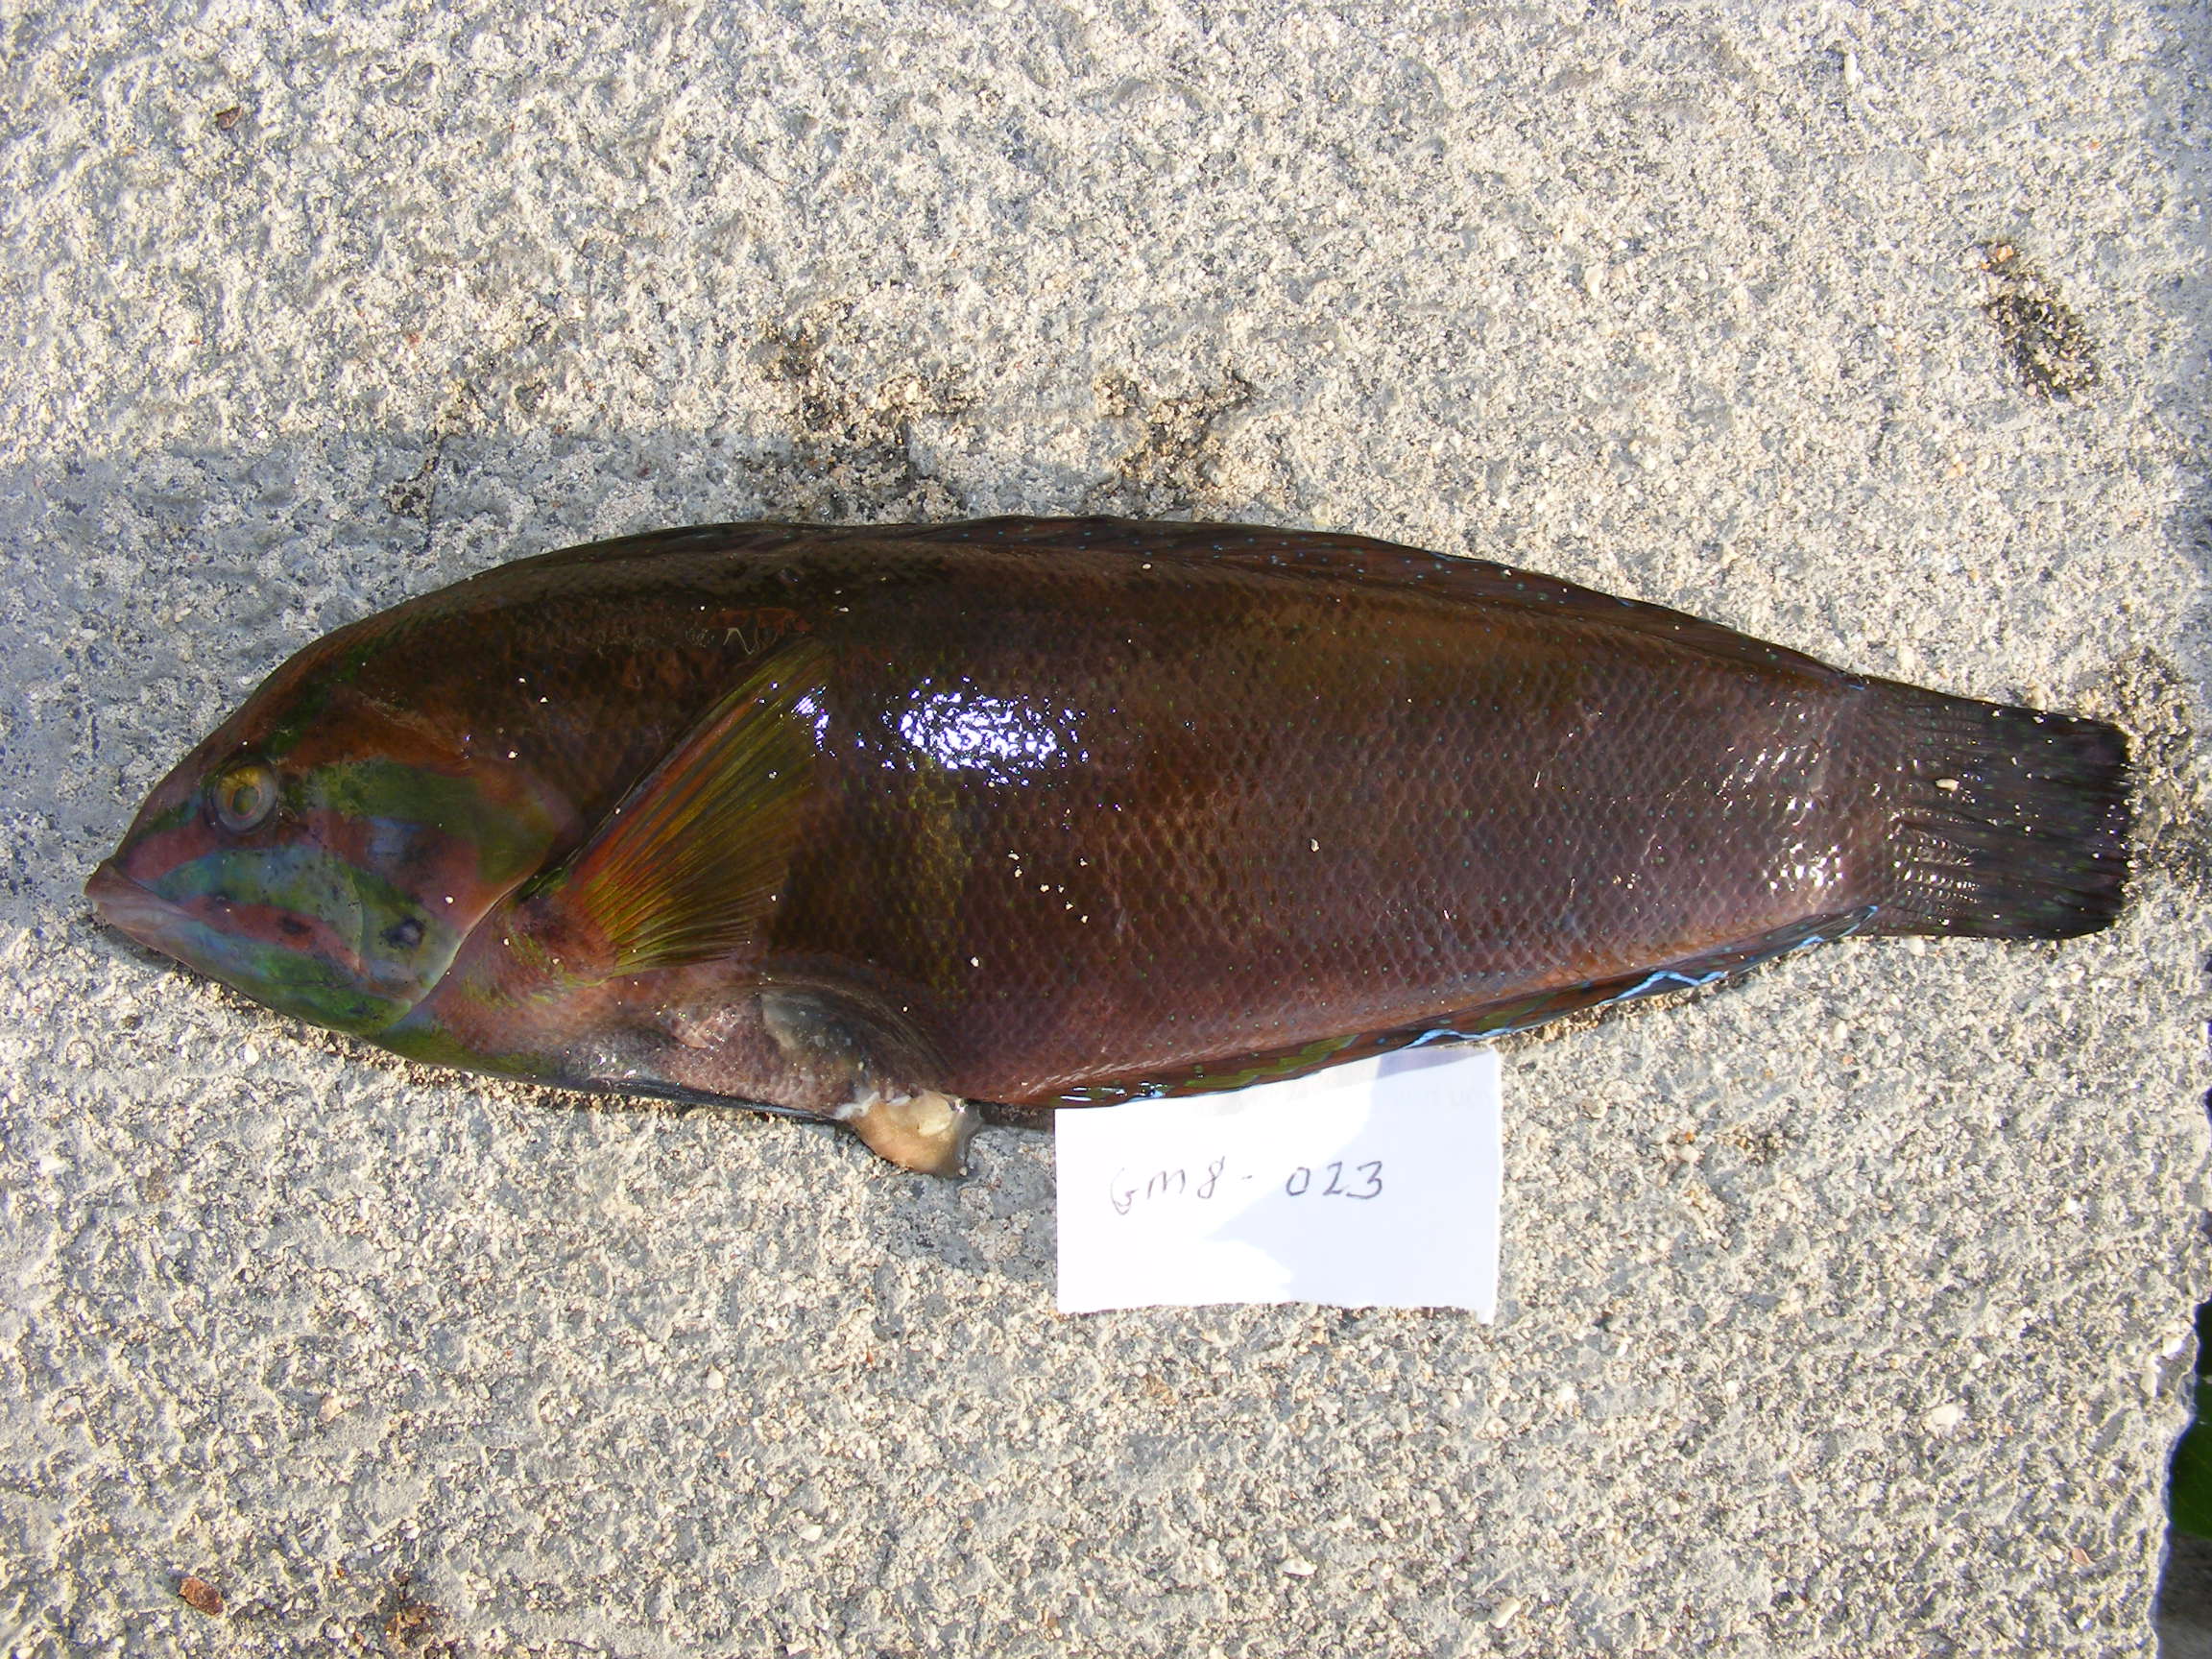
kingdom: Animalia
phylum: Chordata
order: Perciformes
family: Labridae
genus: Coris
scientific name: Coris cuvieri
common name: African coris
